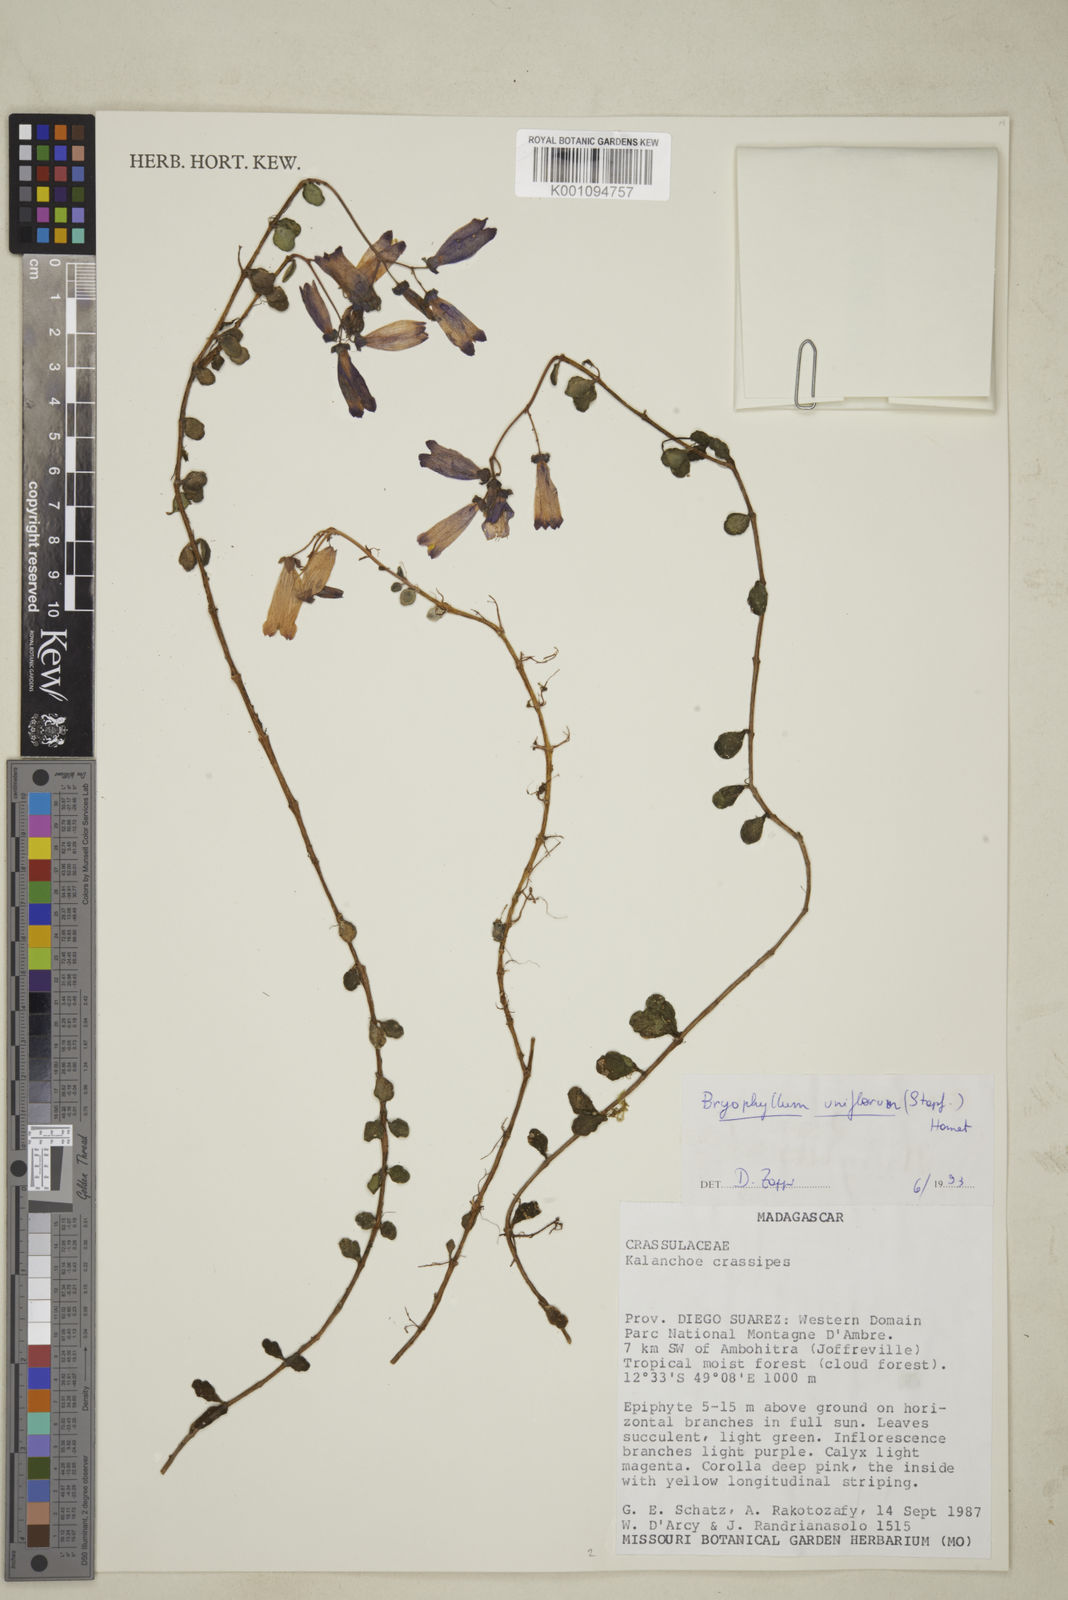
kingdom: Plantae
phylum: Tracheophyta
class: Magnoliopsida
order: Saxifragales
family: Crassulaceae
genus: Kalanchoe
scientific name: Kalanchoe uniflora
